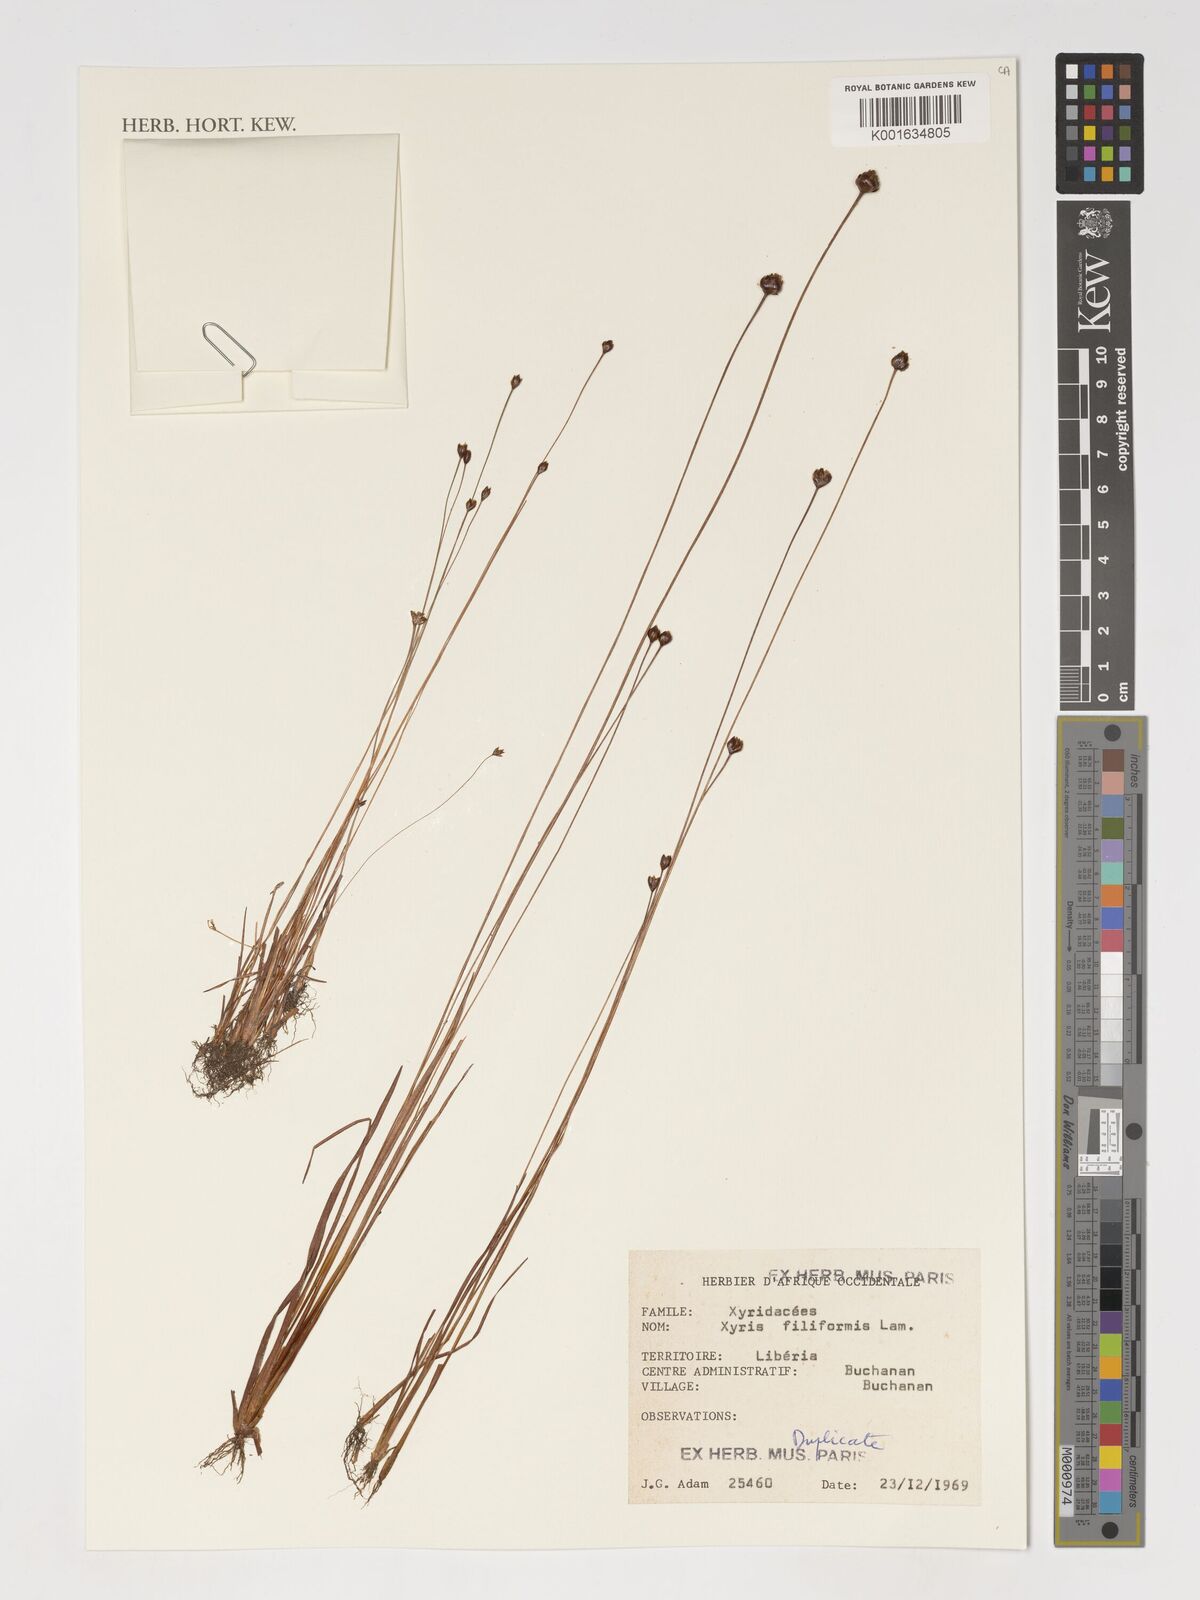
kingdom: Plantae
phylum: Tracheophyta
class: Liliopsida
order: Poales
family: Xyridaceae
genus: Xyris
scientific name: Xyris filiformis
